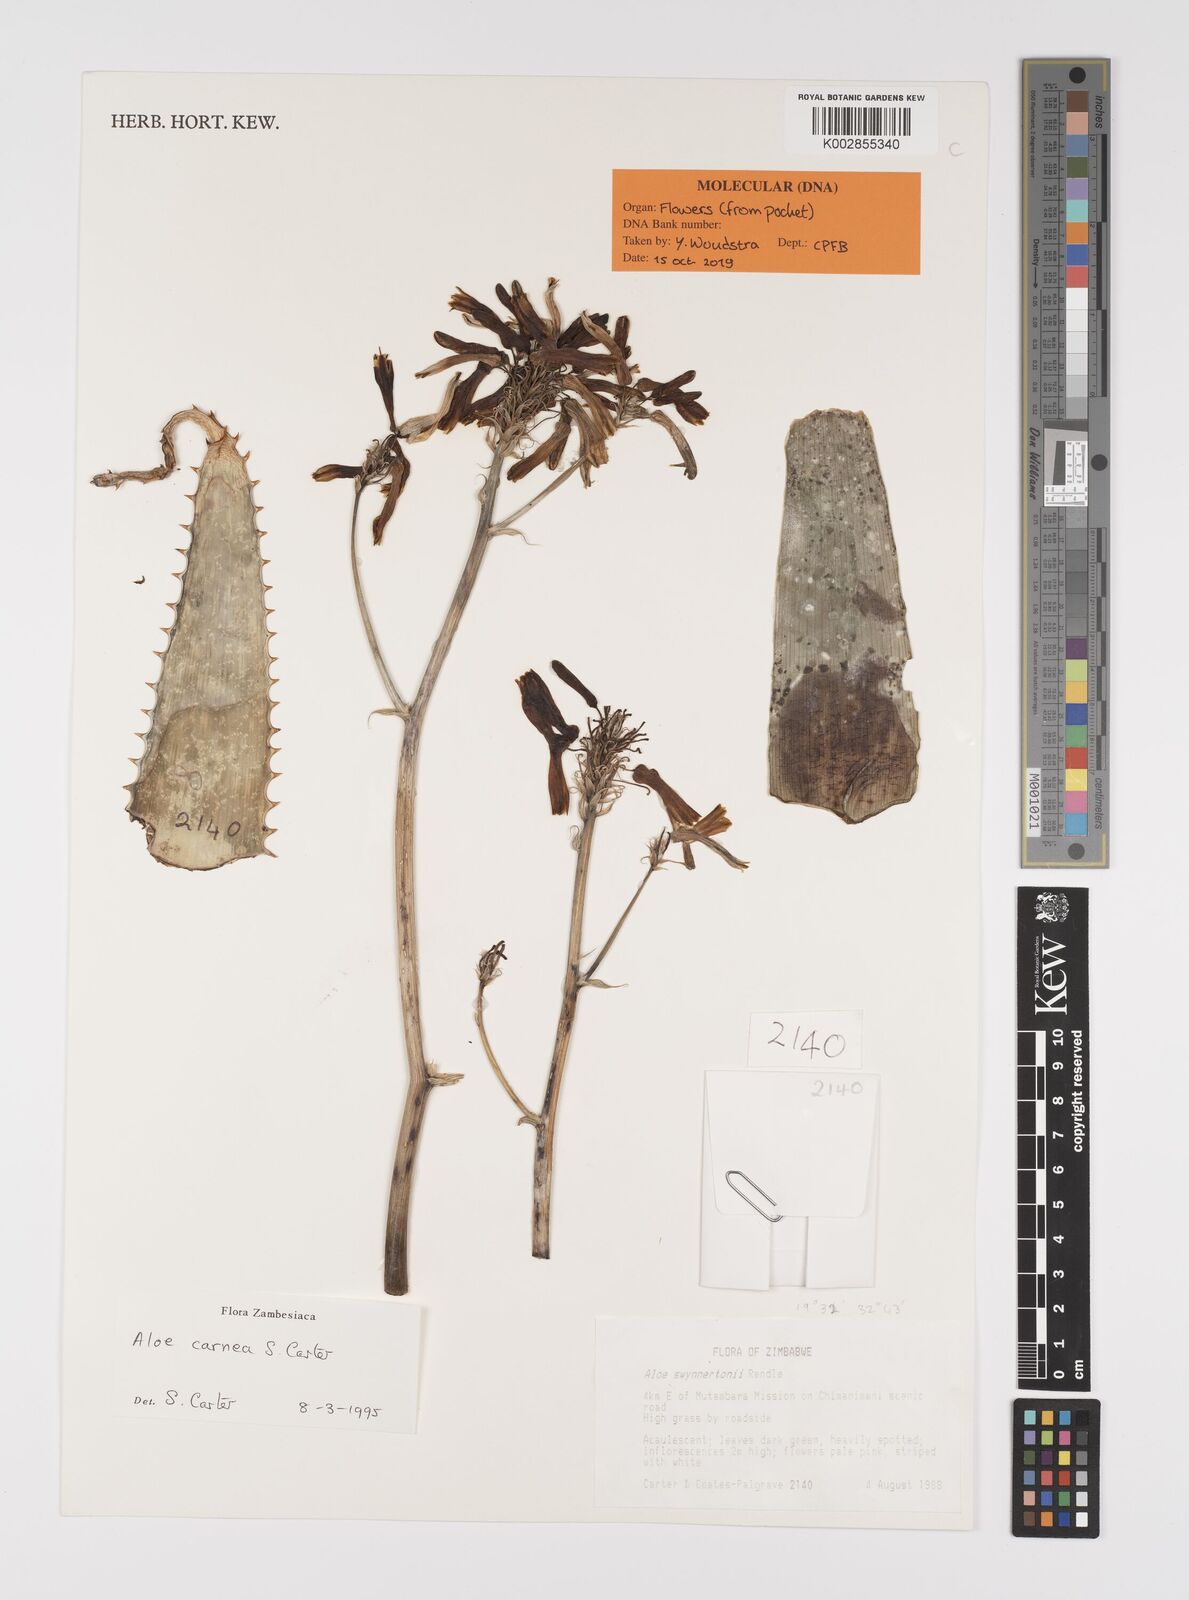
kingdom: Plantae
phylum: Tracheophyta
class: Liliopsida
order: Asparagales
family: Asphodelaceae
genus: Aloe
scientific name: Aloe carnea
